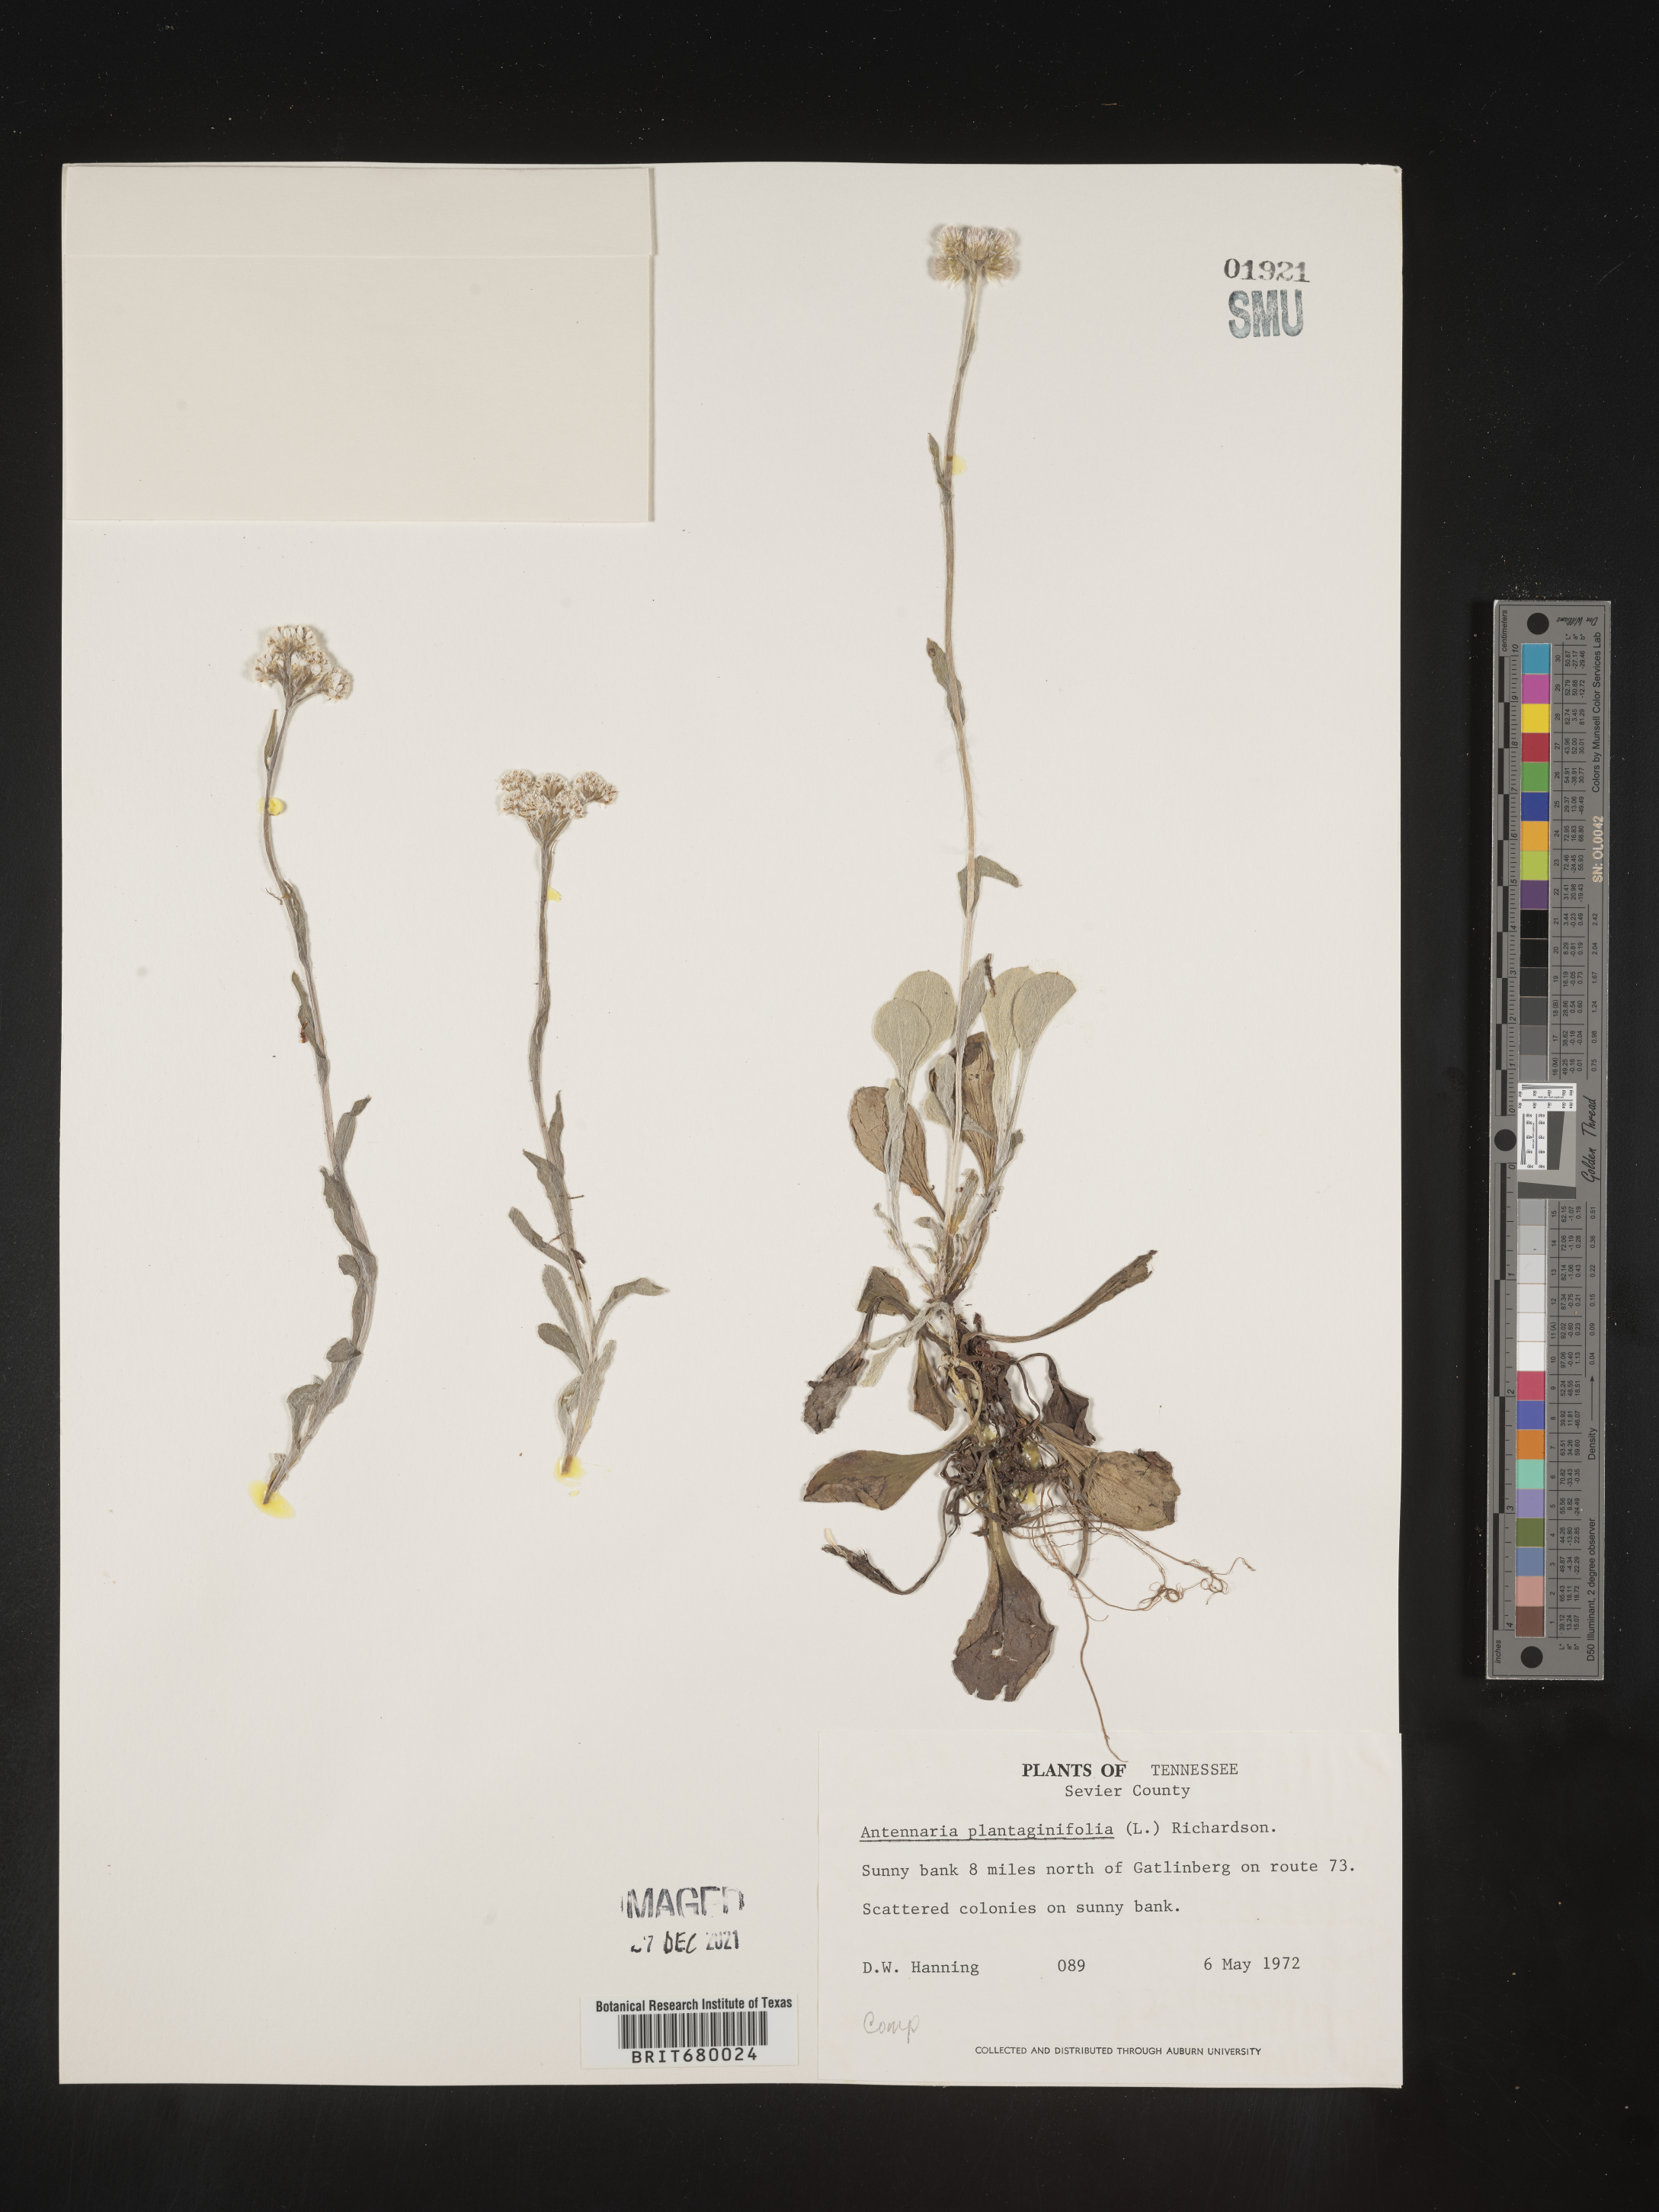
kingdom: Plantae
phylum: Tracheophyta
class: Magnoliopsida
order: Asterales
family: Asteraceae
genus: Antennaria
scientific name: Antennaria plantaginifolia
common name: Plantain-leaved pussytoes
